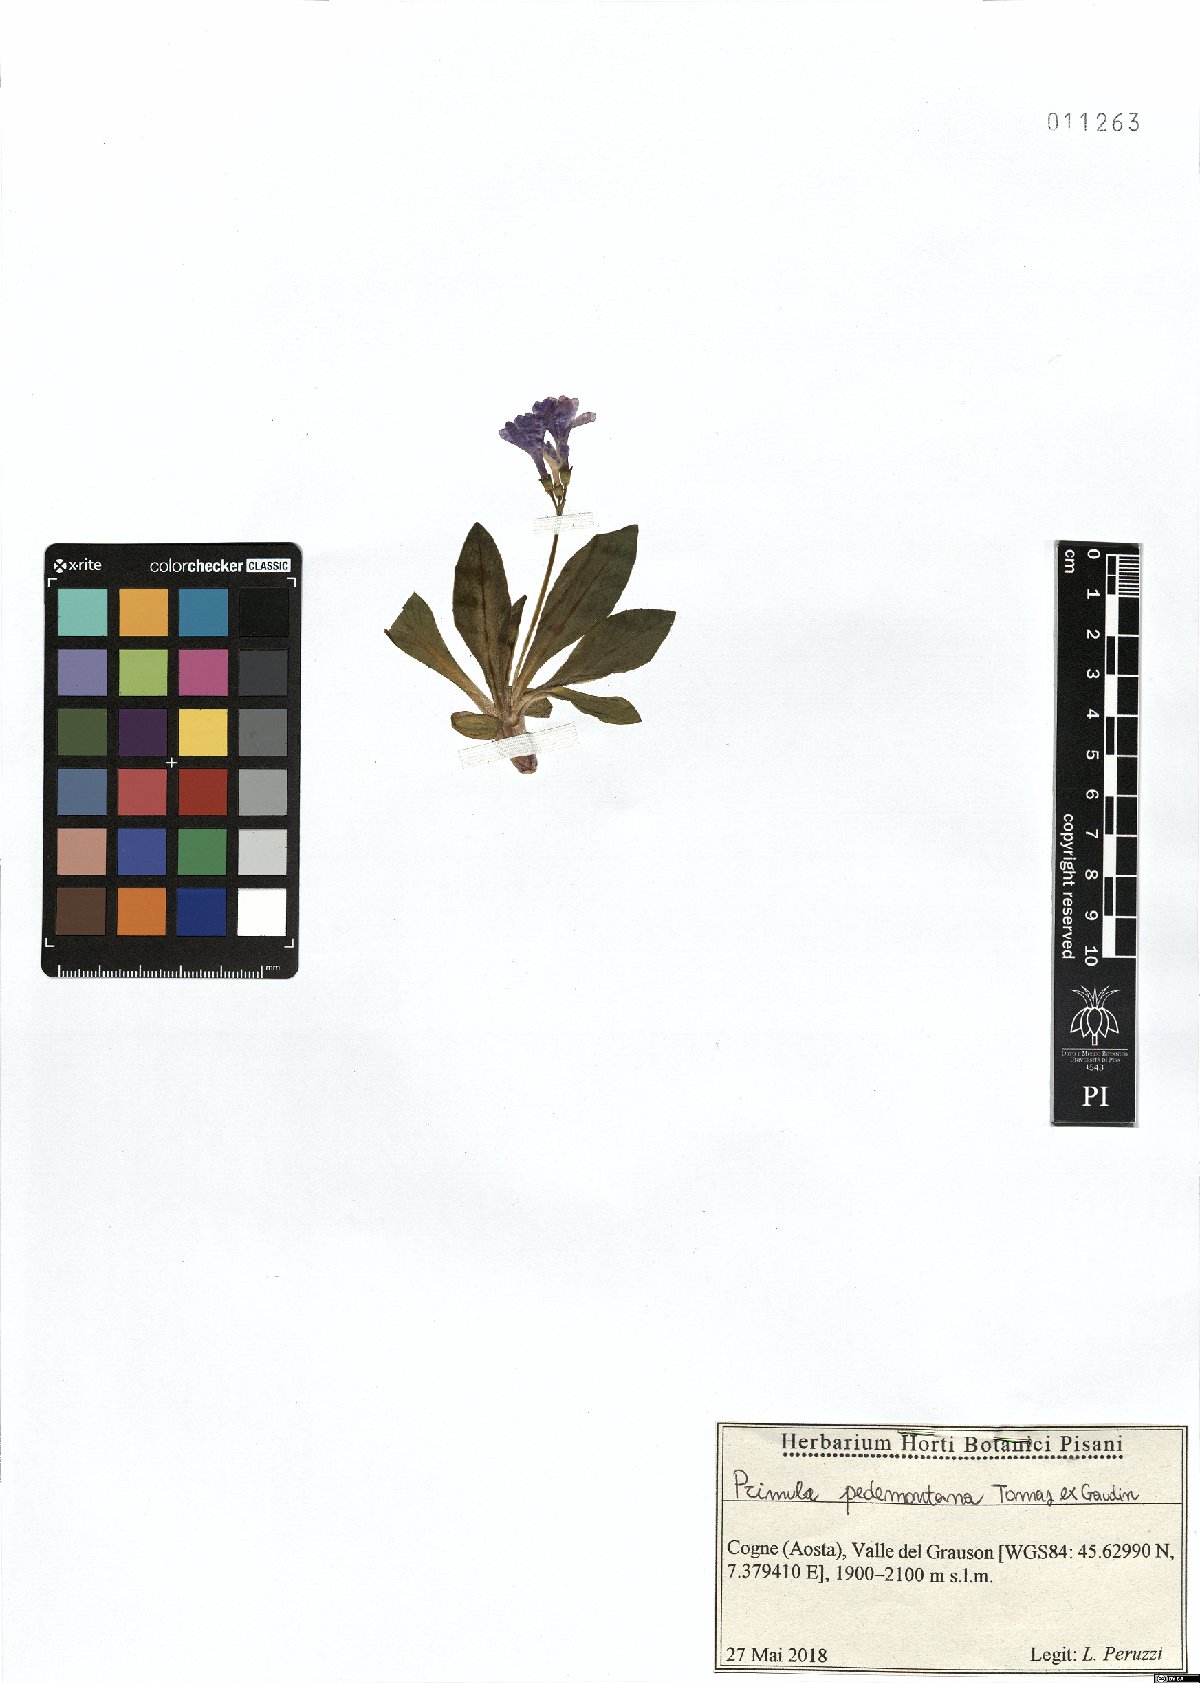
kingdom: Plantae
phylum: Tracheophyta
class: Magnoliopsida
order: Ericales
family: Primulaceae
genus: Primula
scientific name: Primula pedemontana
